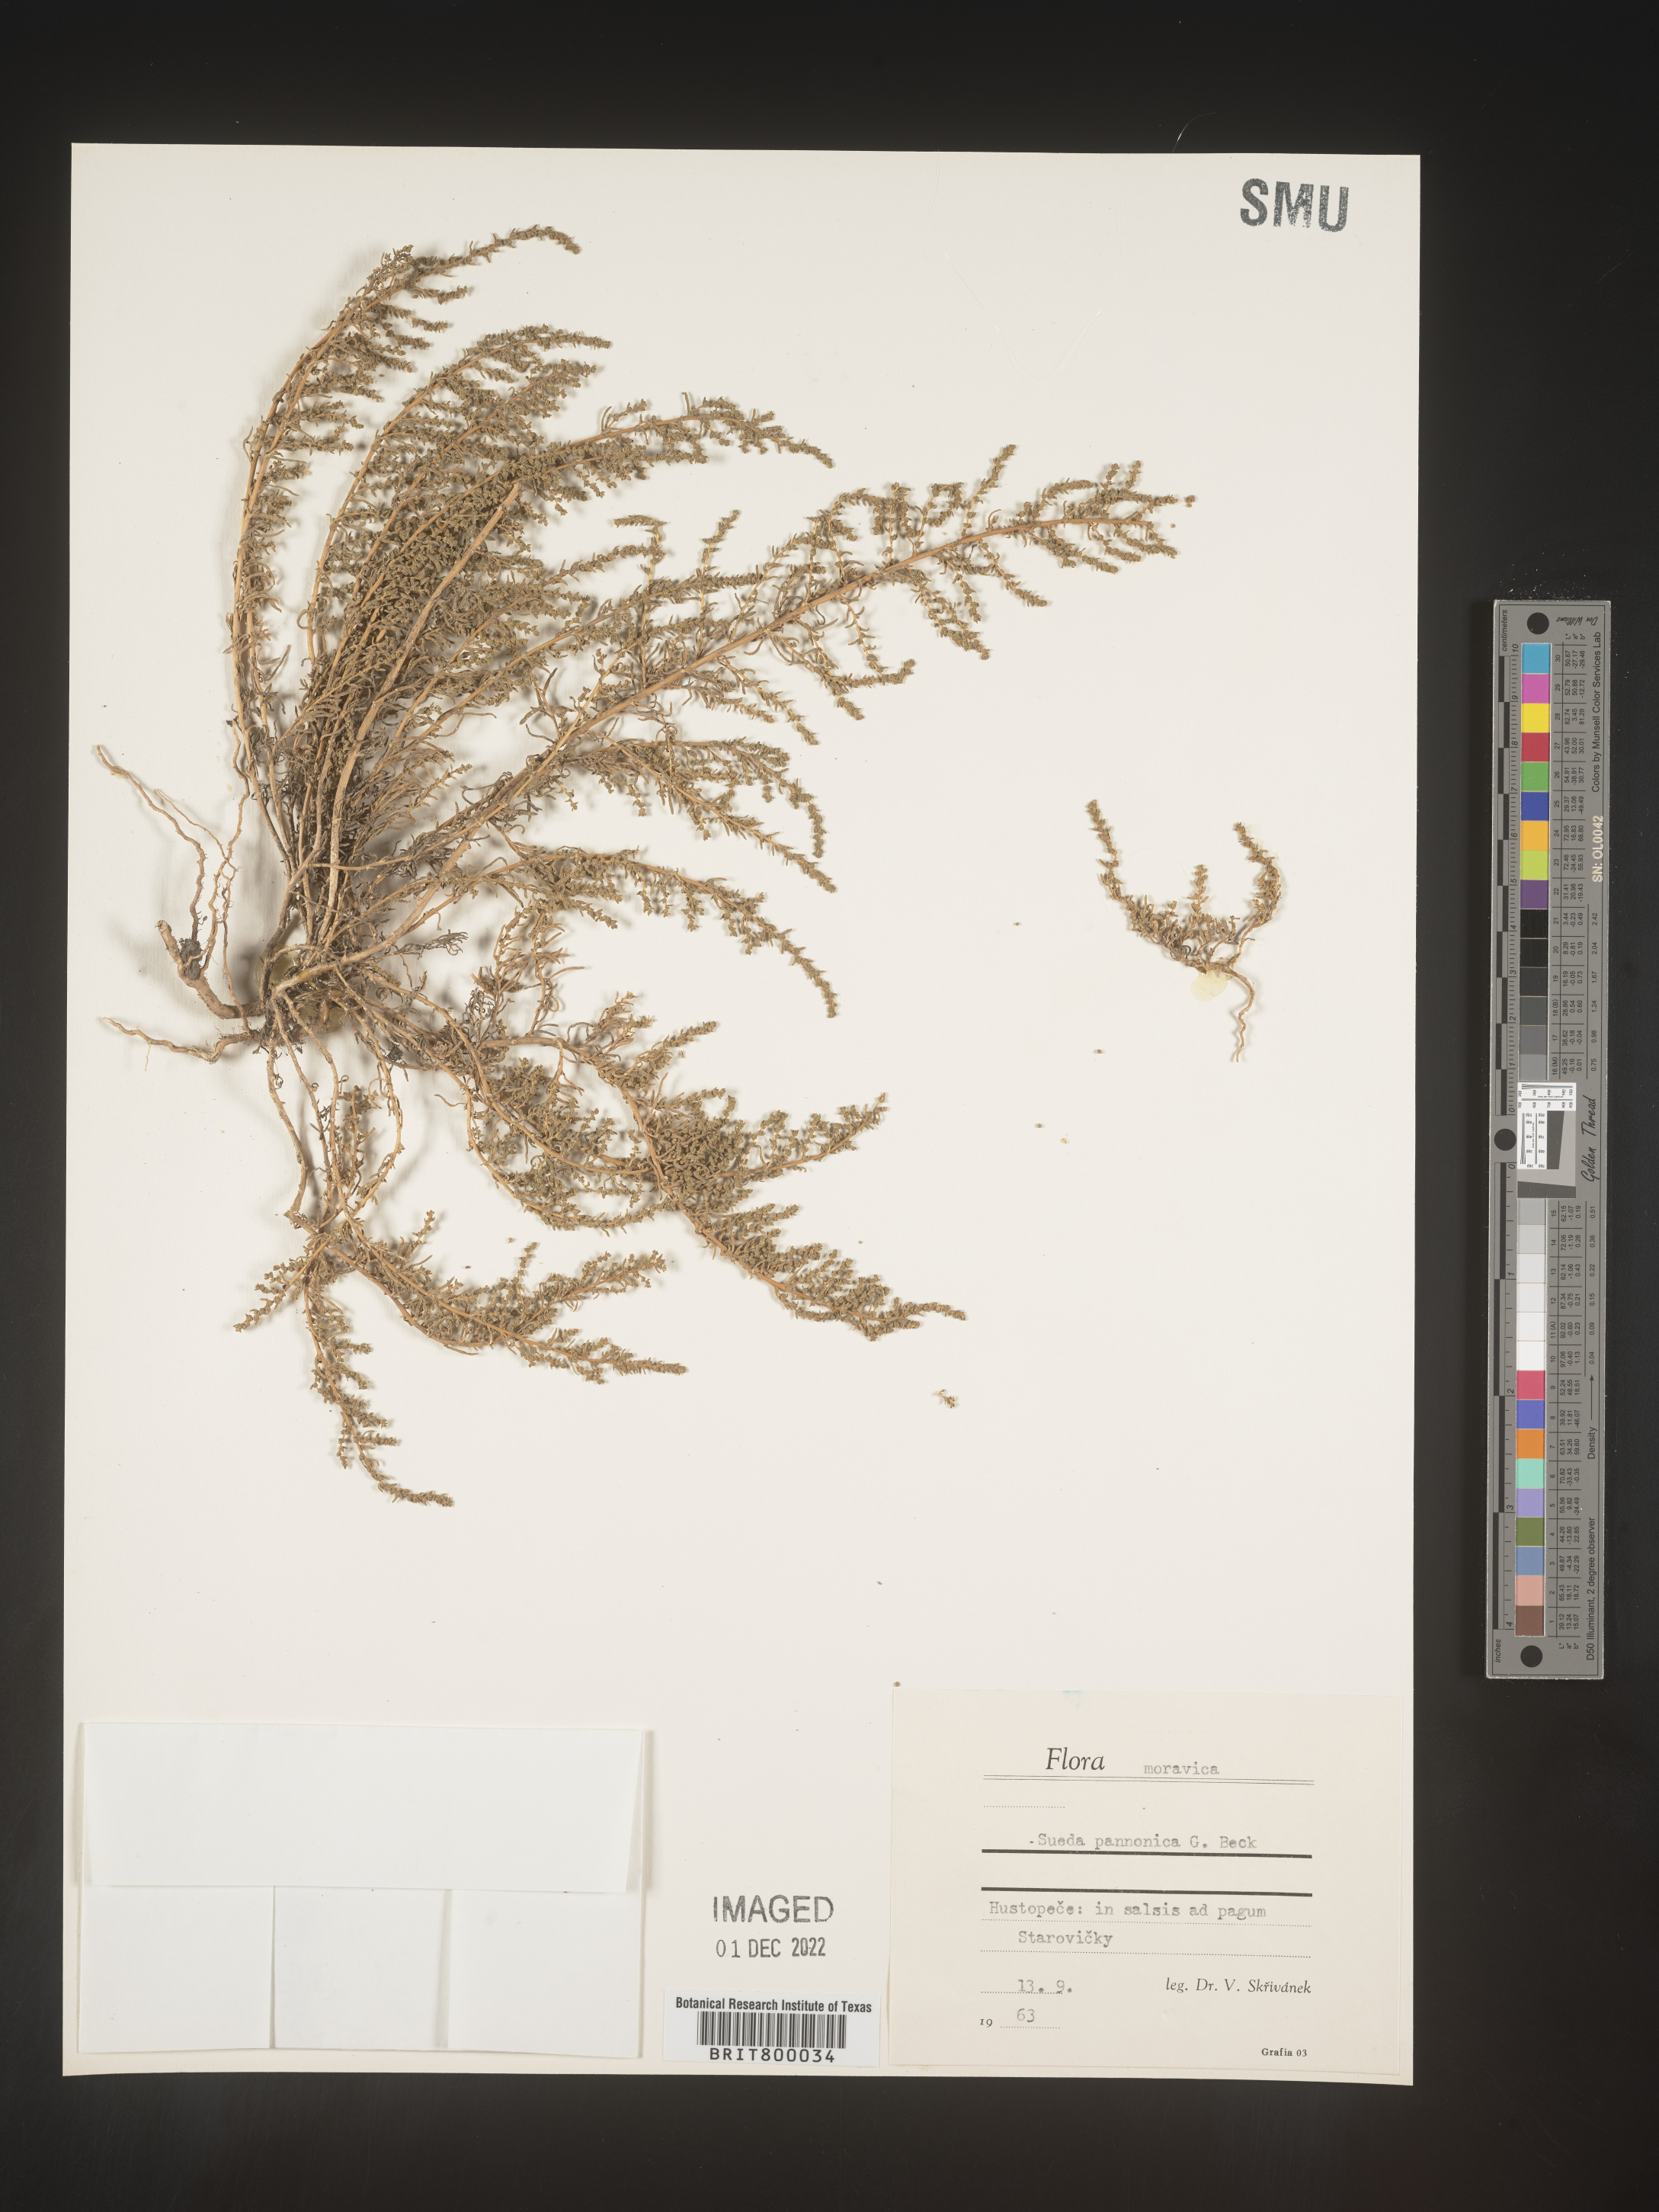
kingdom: Plantae
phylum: Tracheophyta
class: Magnoliopsida
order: Caryophyllales
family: Amaranthaceae
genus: Suaeda
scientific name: Suaeda
